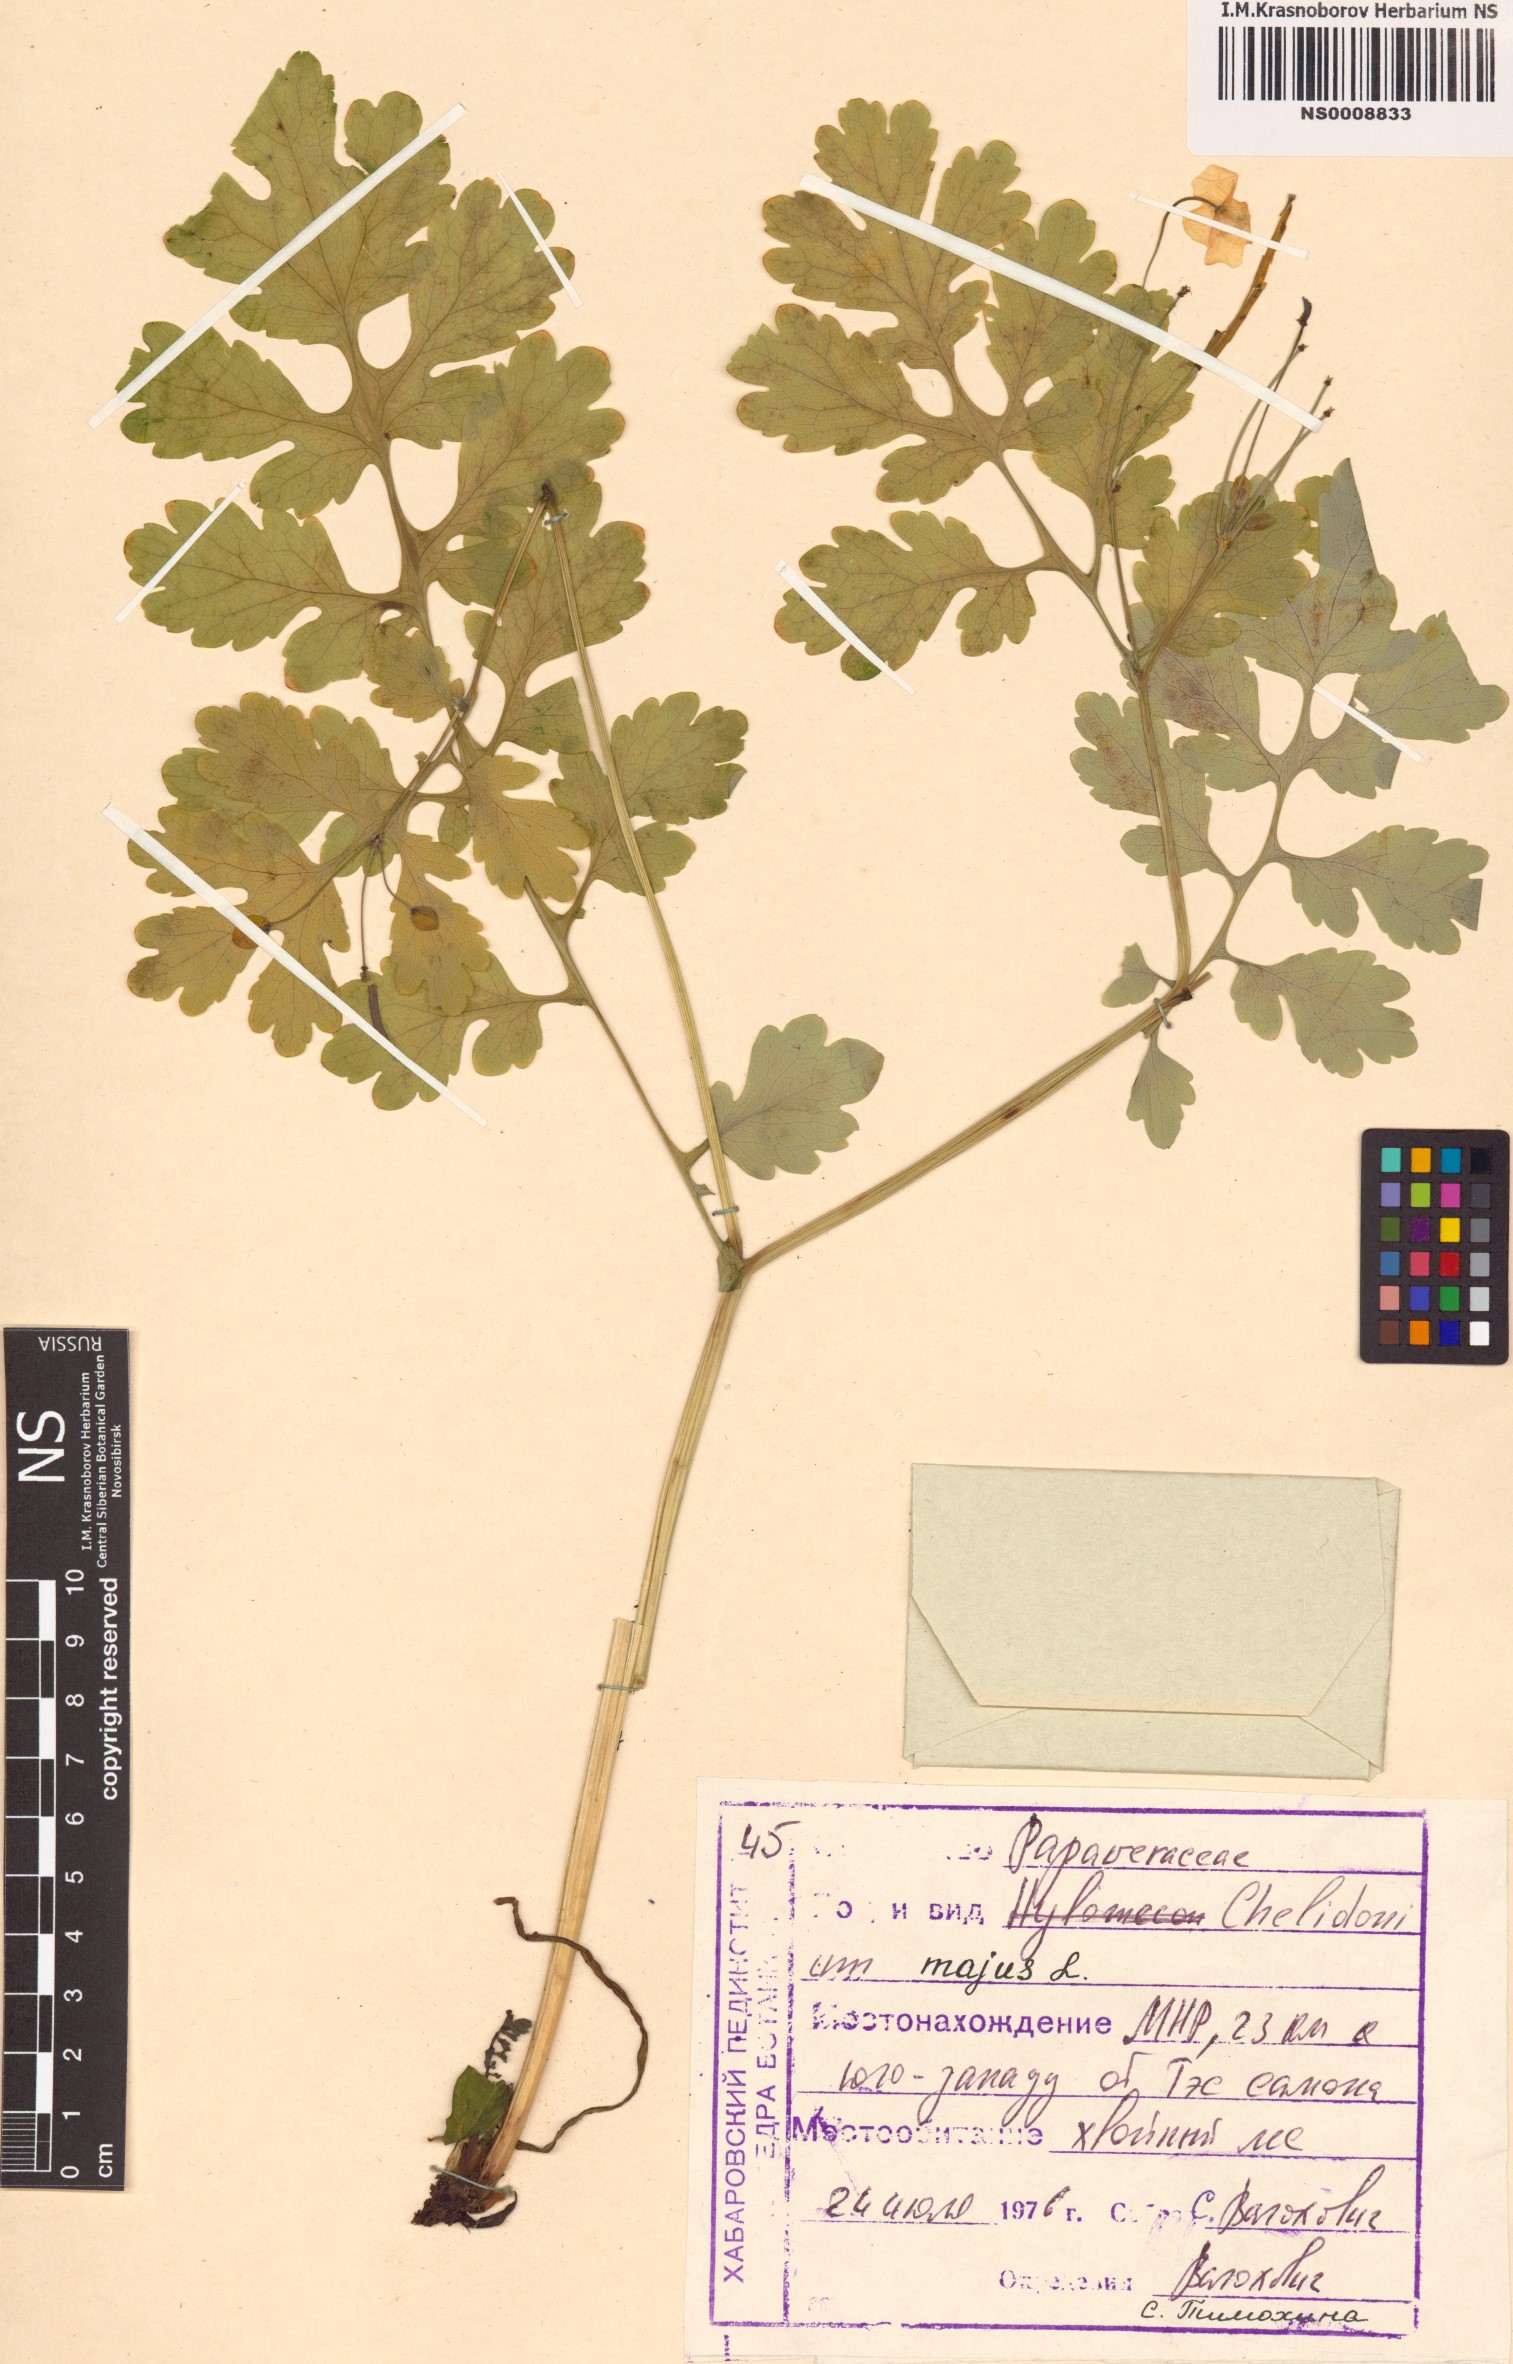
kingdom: Plantae
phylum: Tracheophyta
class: Magnoliopsida
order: Ranunculales
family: Papaveraceae
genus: Chelidonium
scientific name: Chelidonium majus
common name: Greater celandine
